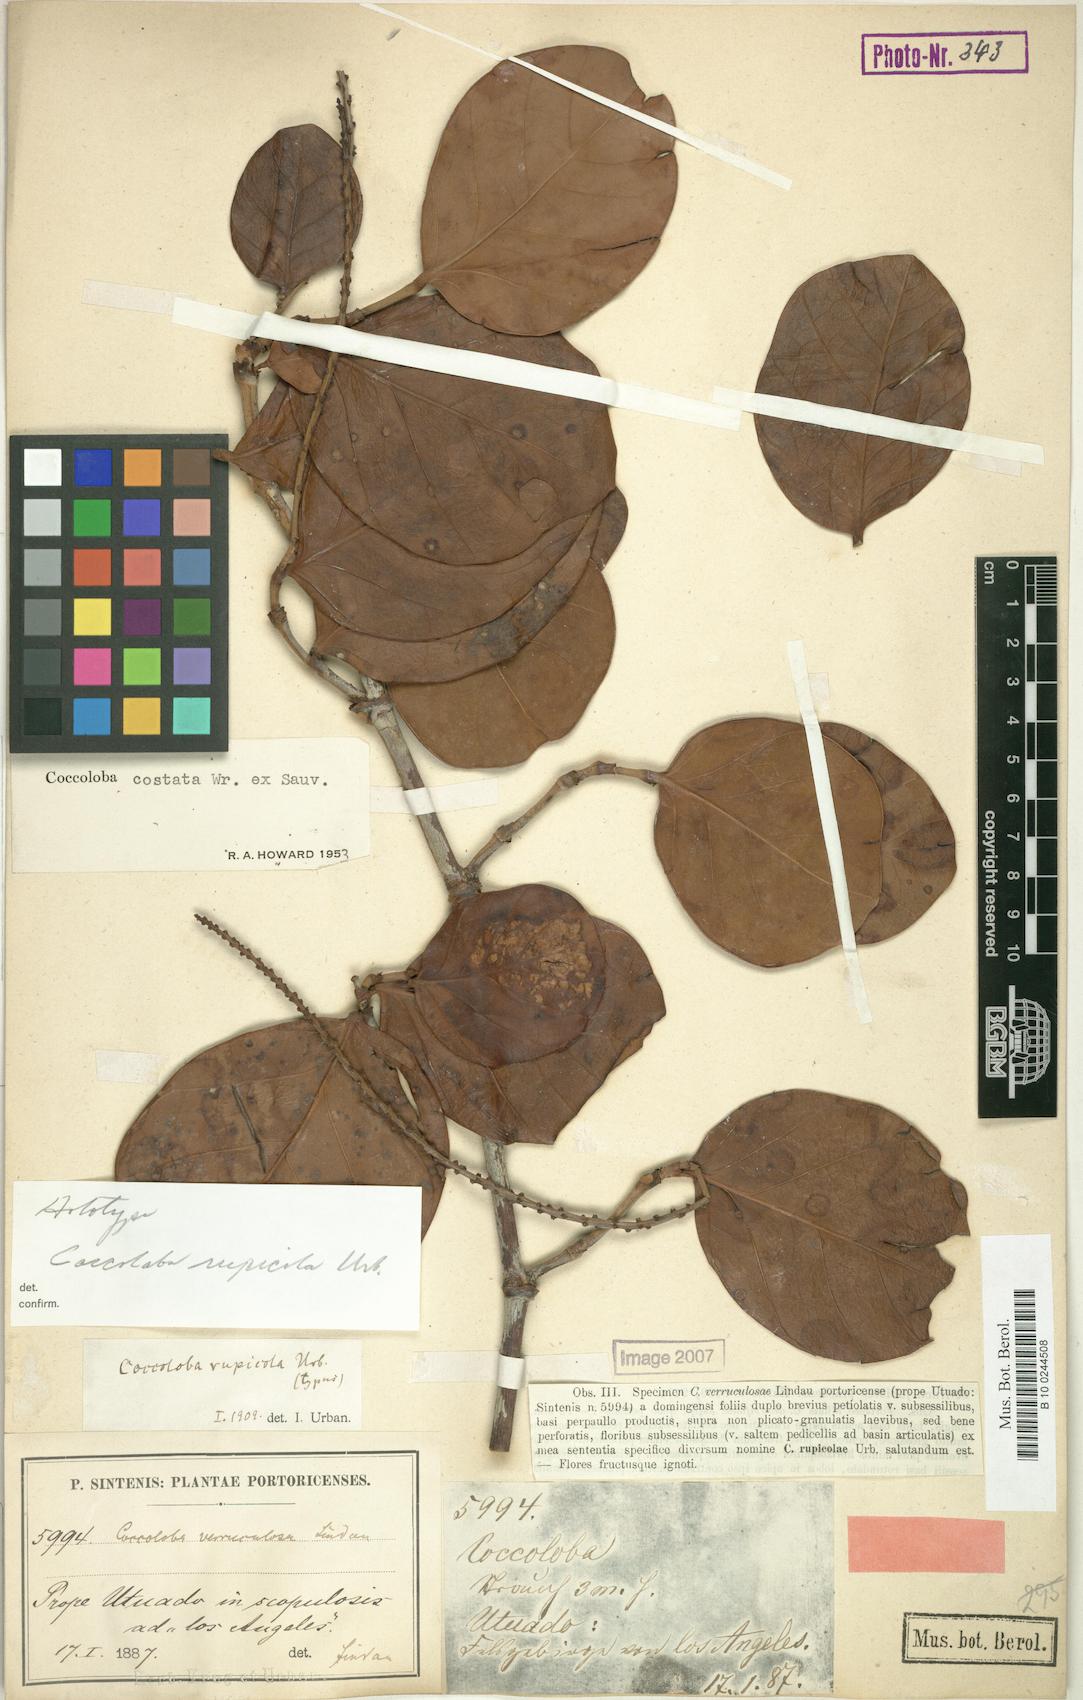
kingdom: Plantae
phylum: Tracheophyta
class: Magnoliopsida
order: Caryophyllales
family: Polygonaceae
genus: Coccoloba
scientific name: Coccoloba costata
